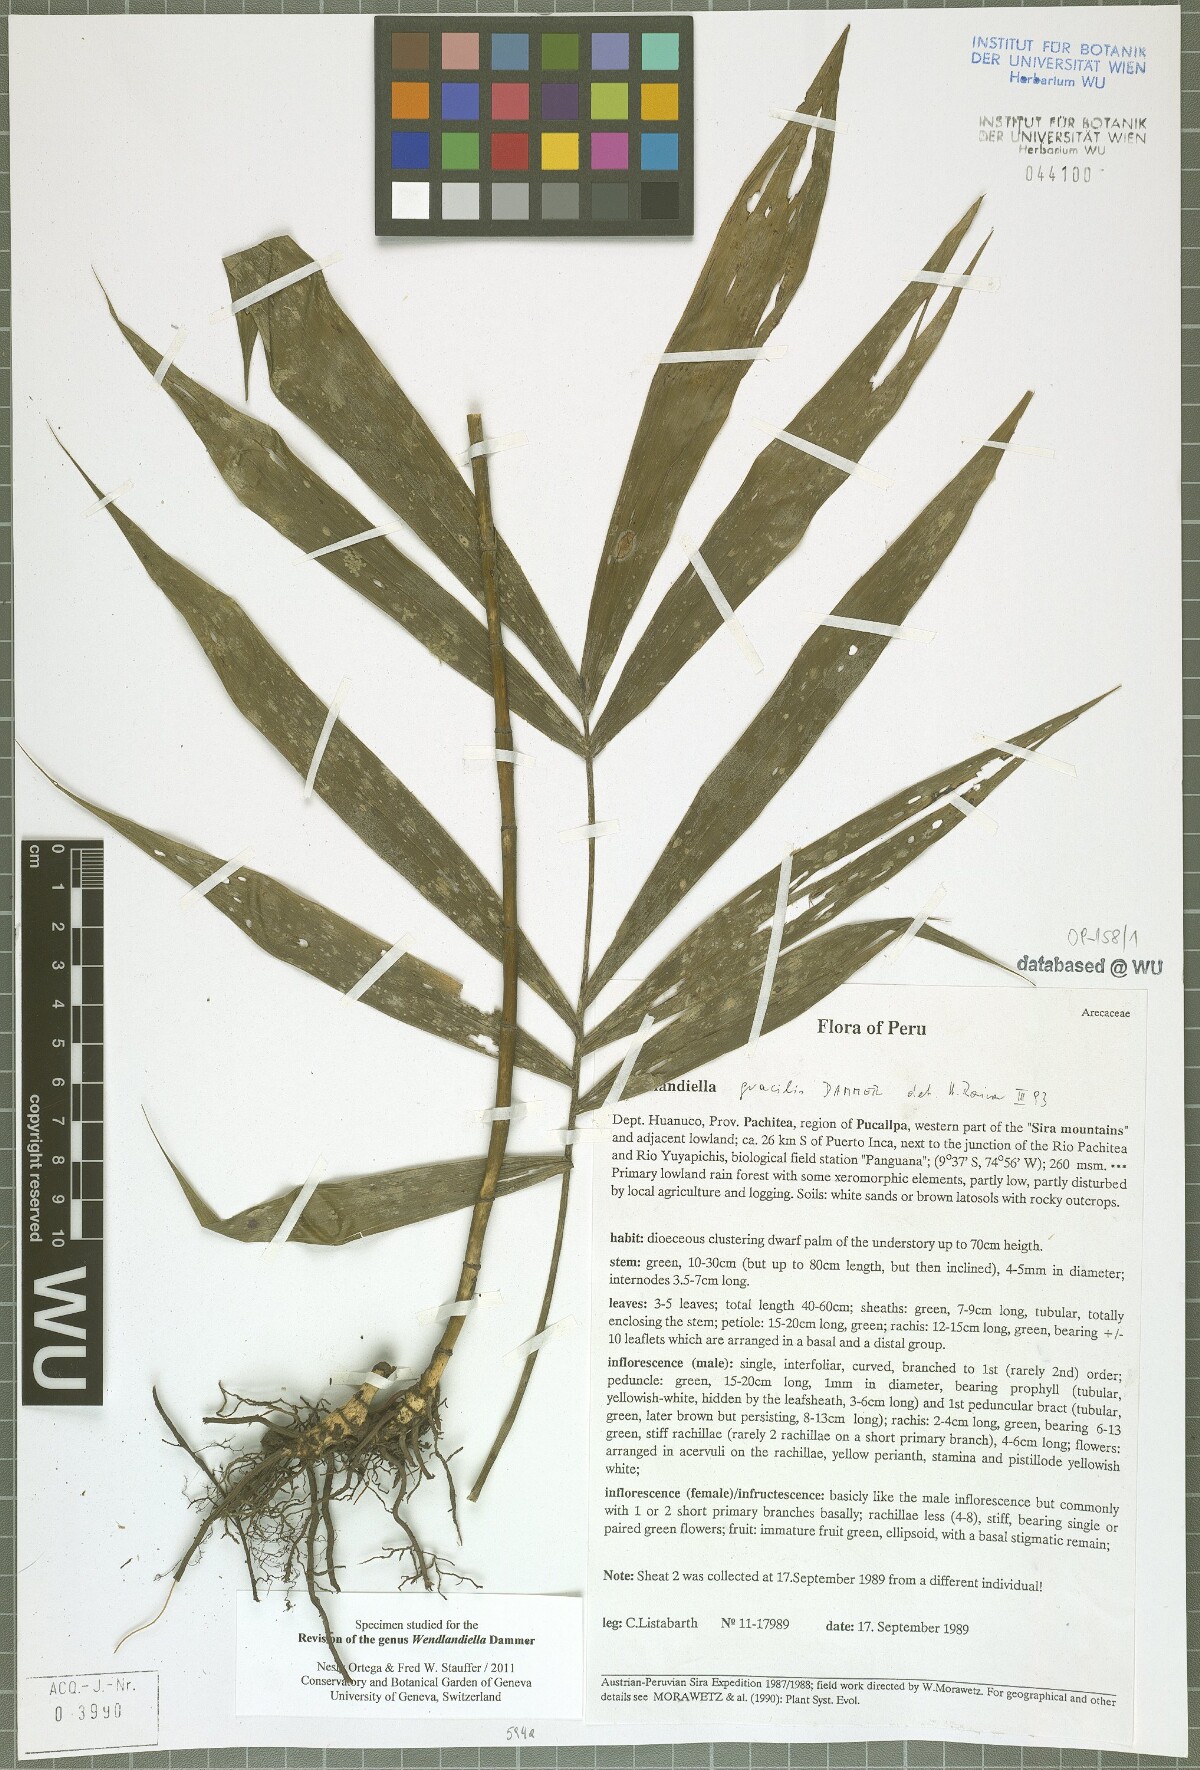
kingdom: Plantae
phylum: Tracheophyta
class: Liliopsida
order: Arecales
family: Arecaceae
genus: Wendlandiella
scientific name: Wendlandiella gracilis
